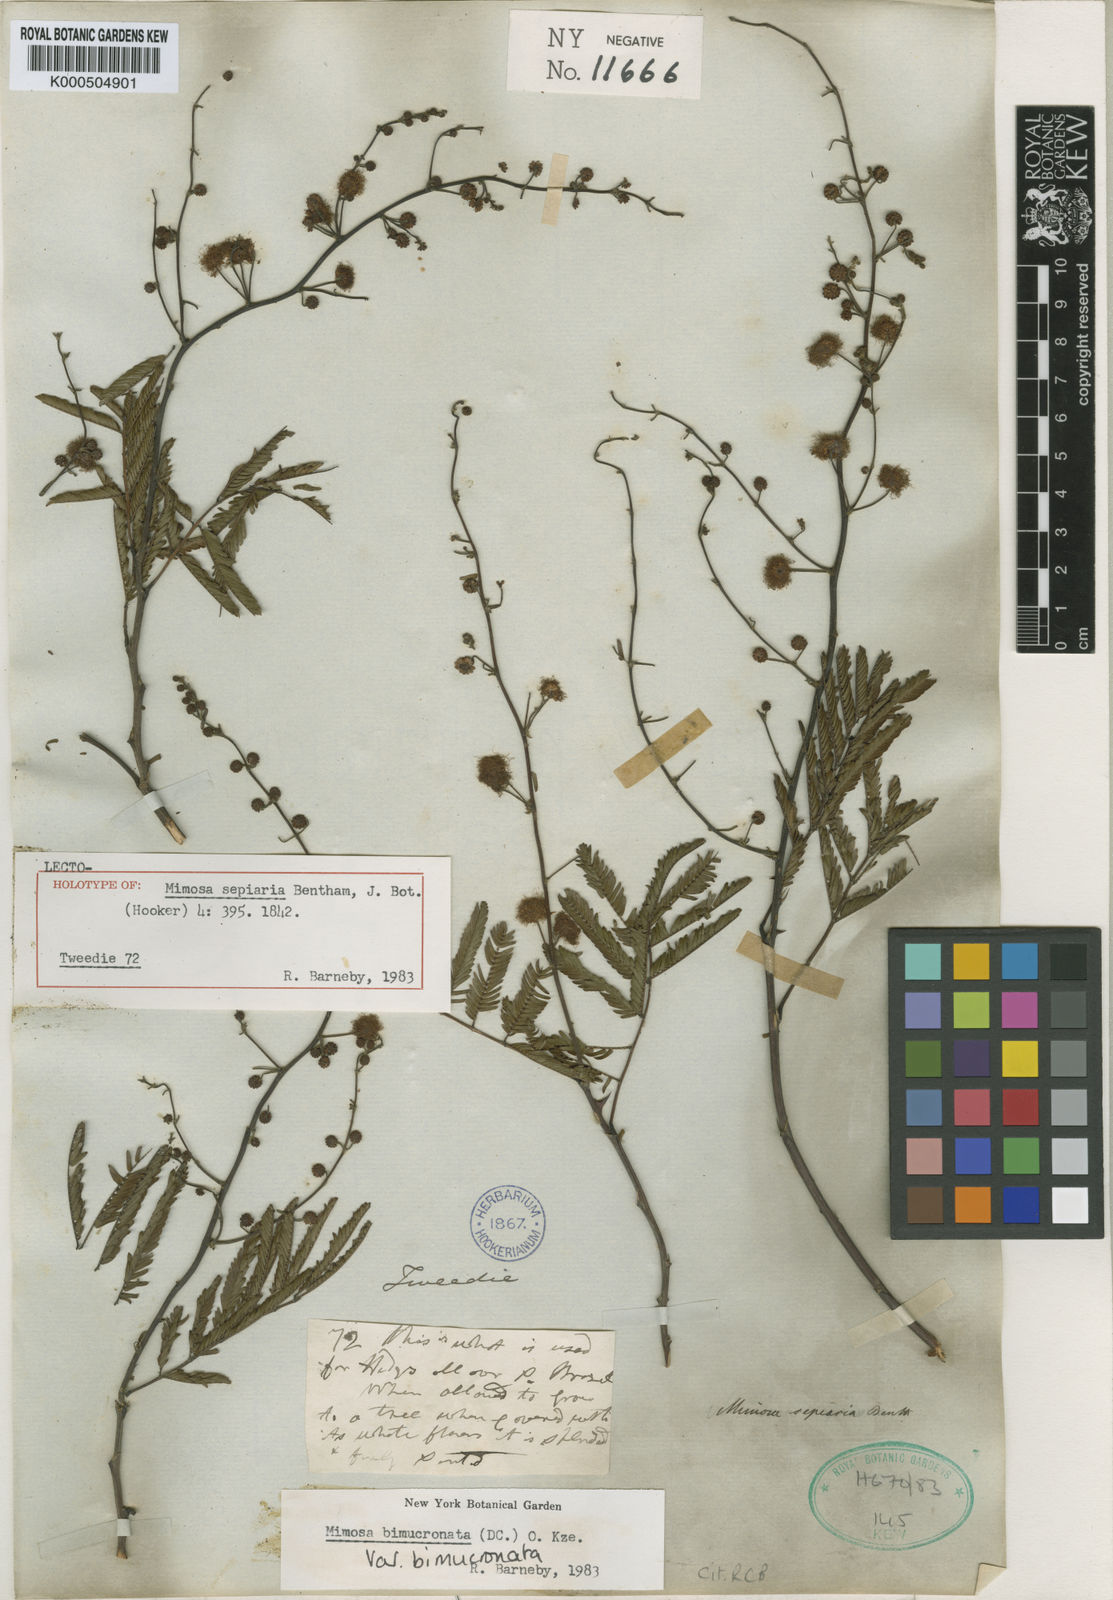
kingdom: Plantae
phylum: Tracheophyta
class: Magnoliopsida
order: Fabales
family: Fabaceae
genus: Mimosa
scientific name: Mimosa bimucronata
